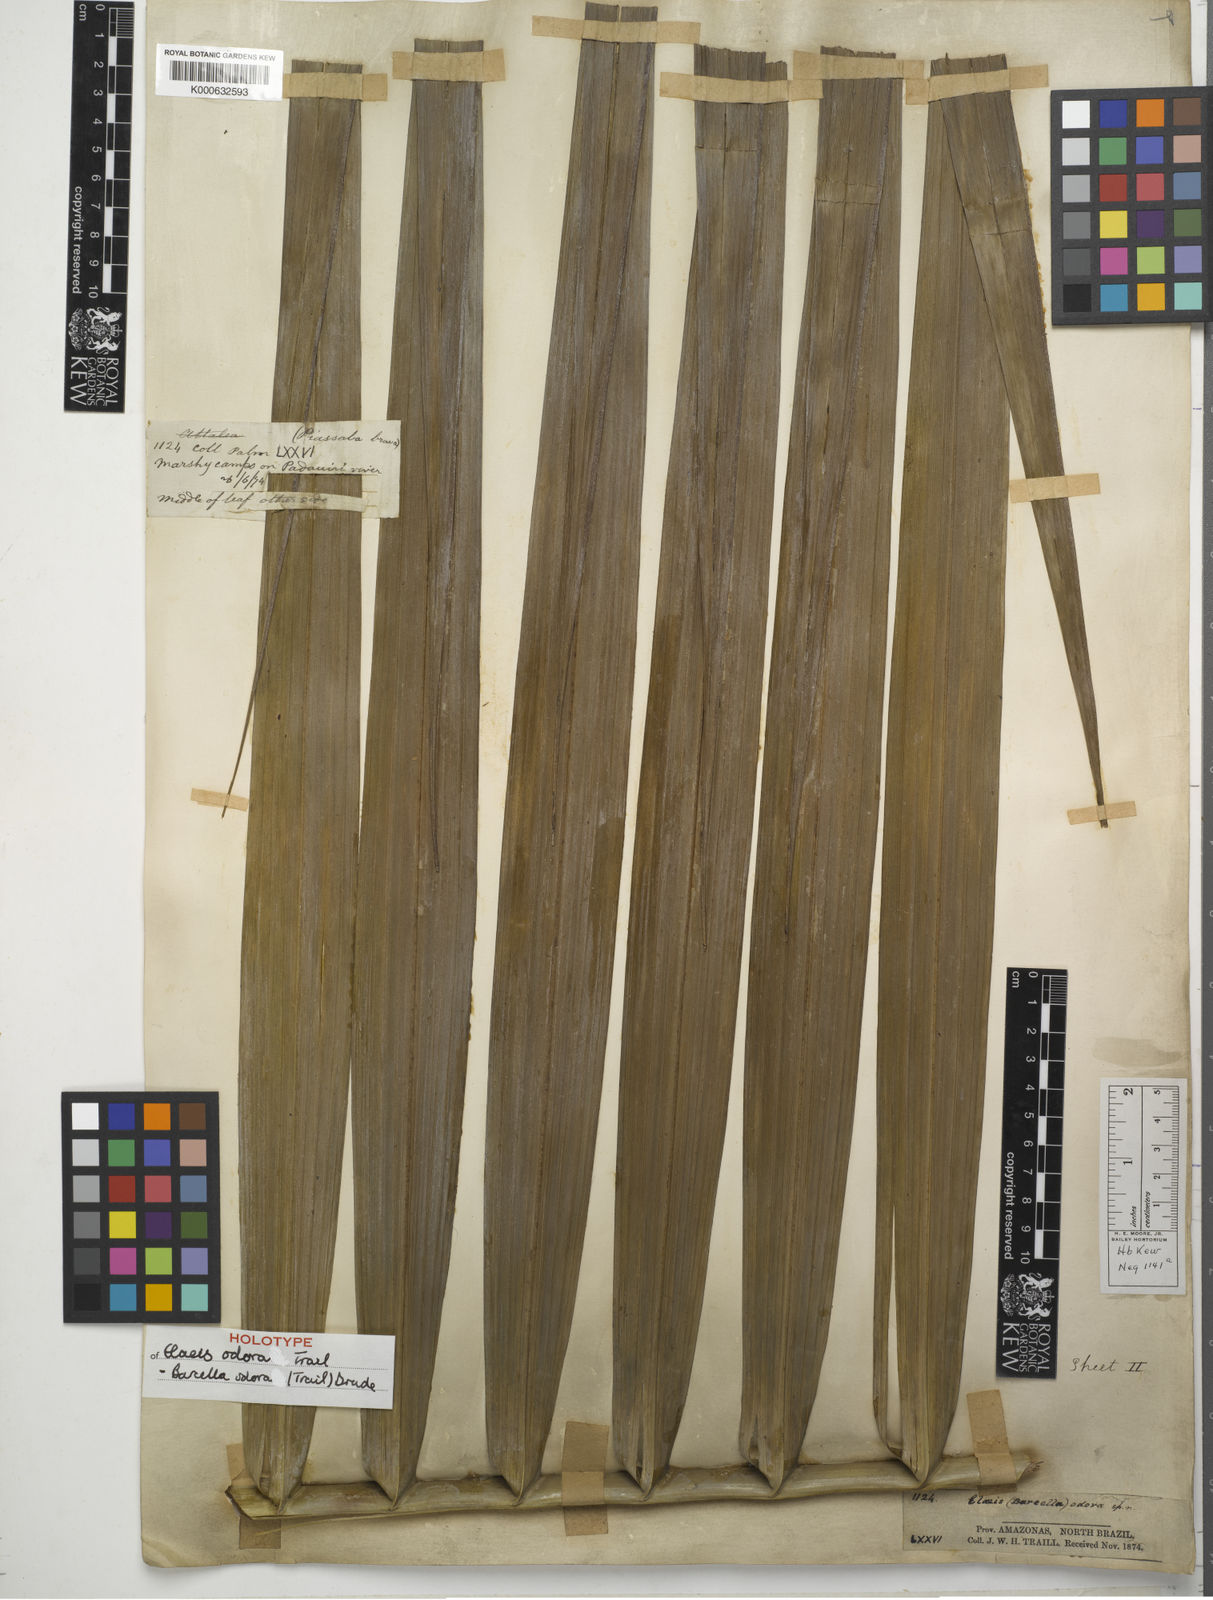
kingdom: Plantae
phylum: Tracheophyta
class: Liliopsida
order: Arecales
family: Arecaceae
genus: Barcella
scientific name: Barcella odora
